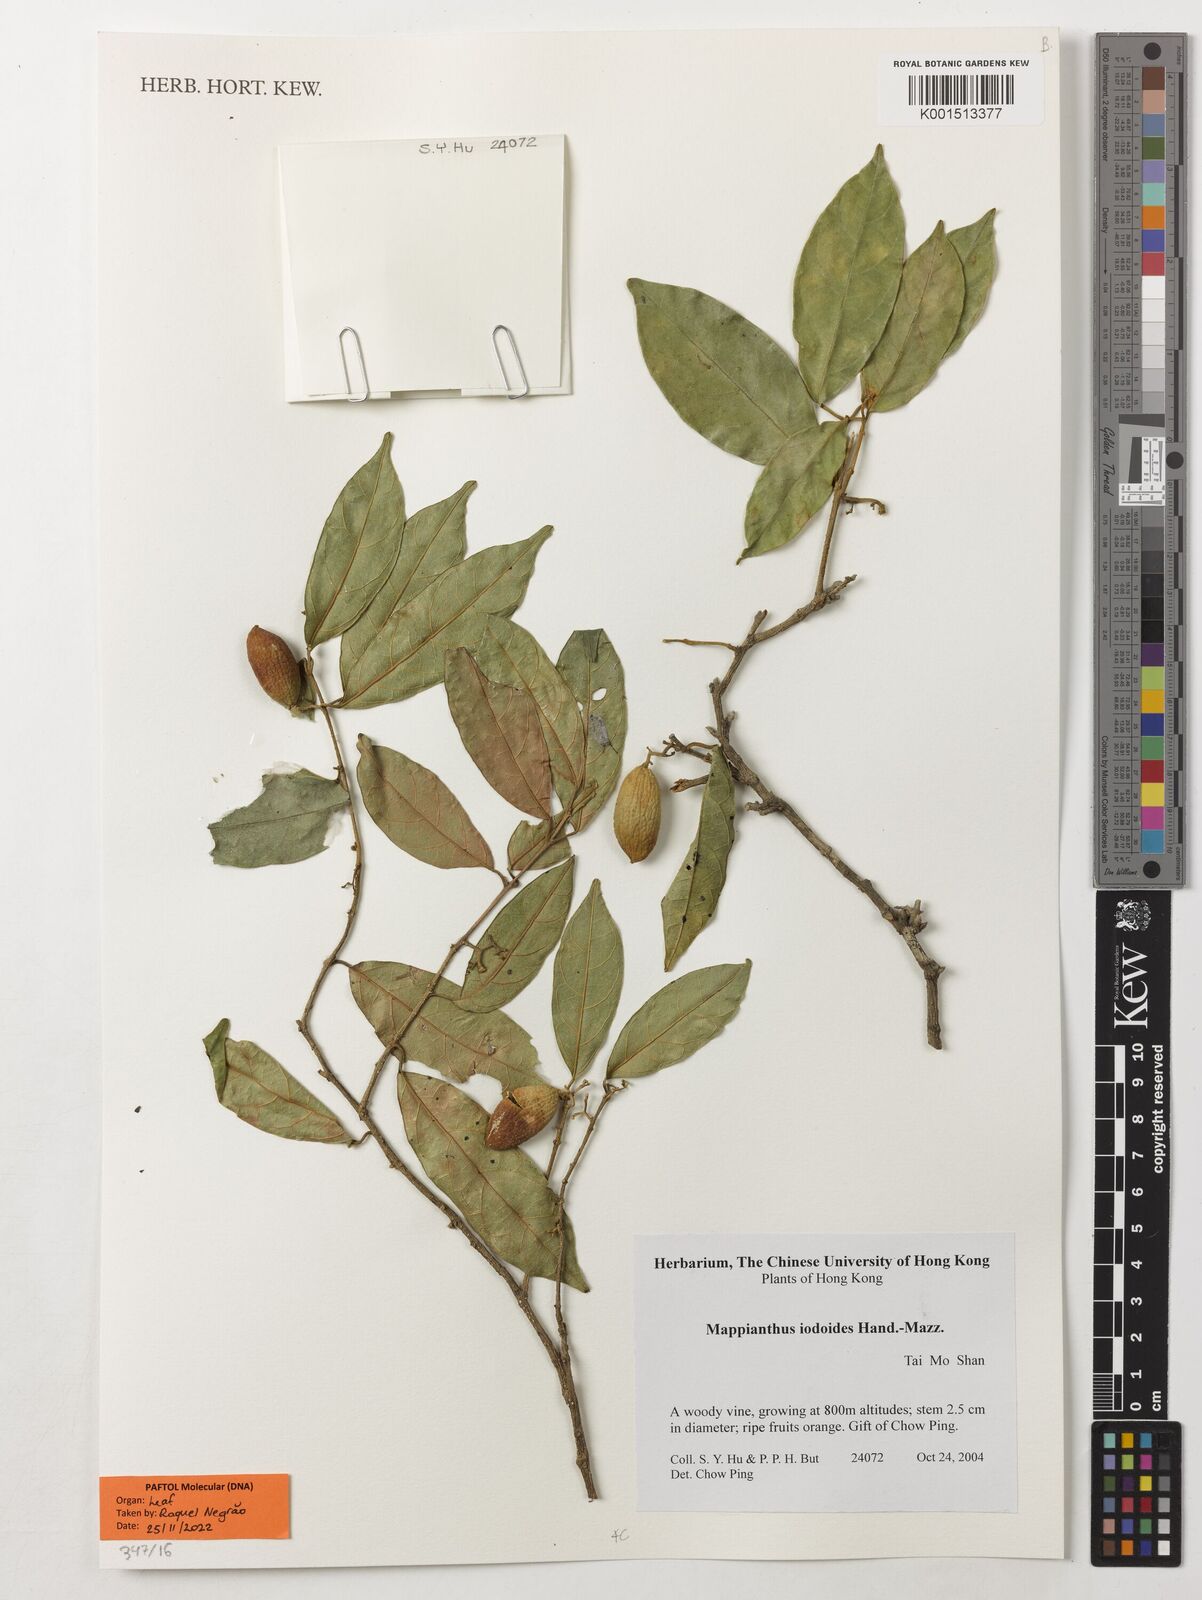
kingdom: Plantae
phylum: Tracheophyta
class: Magnoliopsida
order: Icacinales
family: Icacinaceae
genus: Mappianthus
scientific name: Mappianthus iodoides
